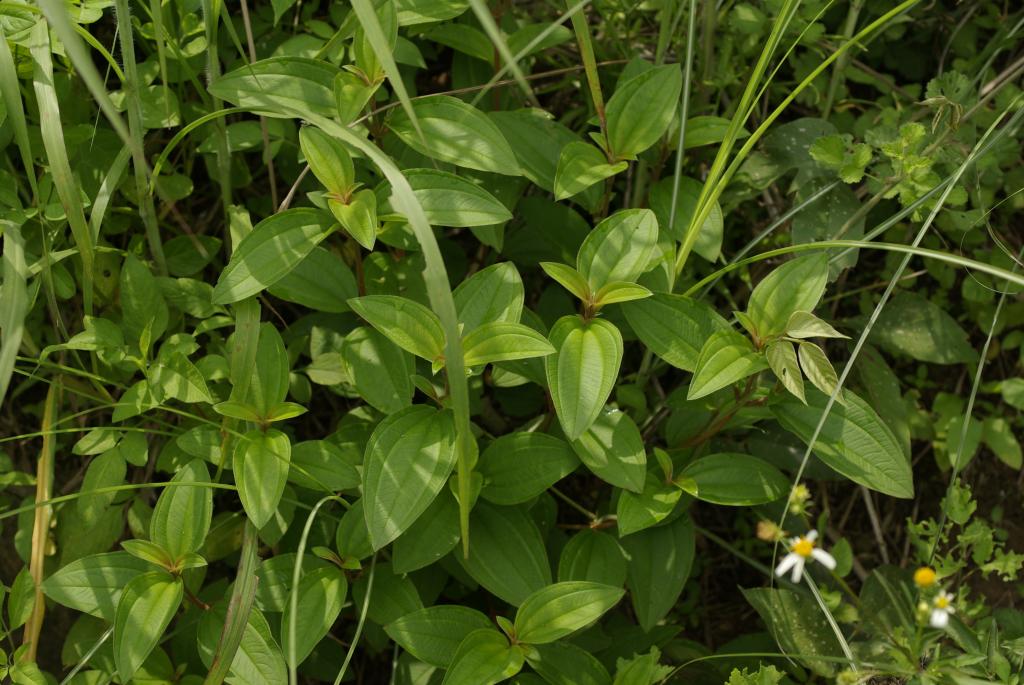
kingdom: Plantae
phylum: Tracheophyta
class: Magnoliopsida
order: Myrtales
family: Melastomataceae
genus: Melastoma
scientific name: Melastoma malabathricum
